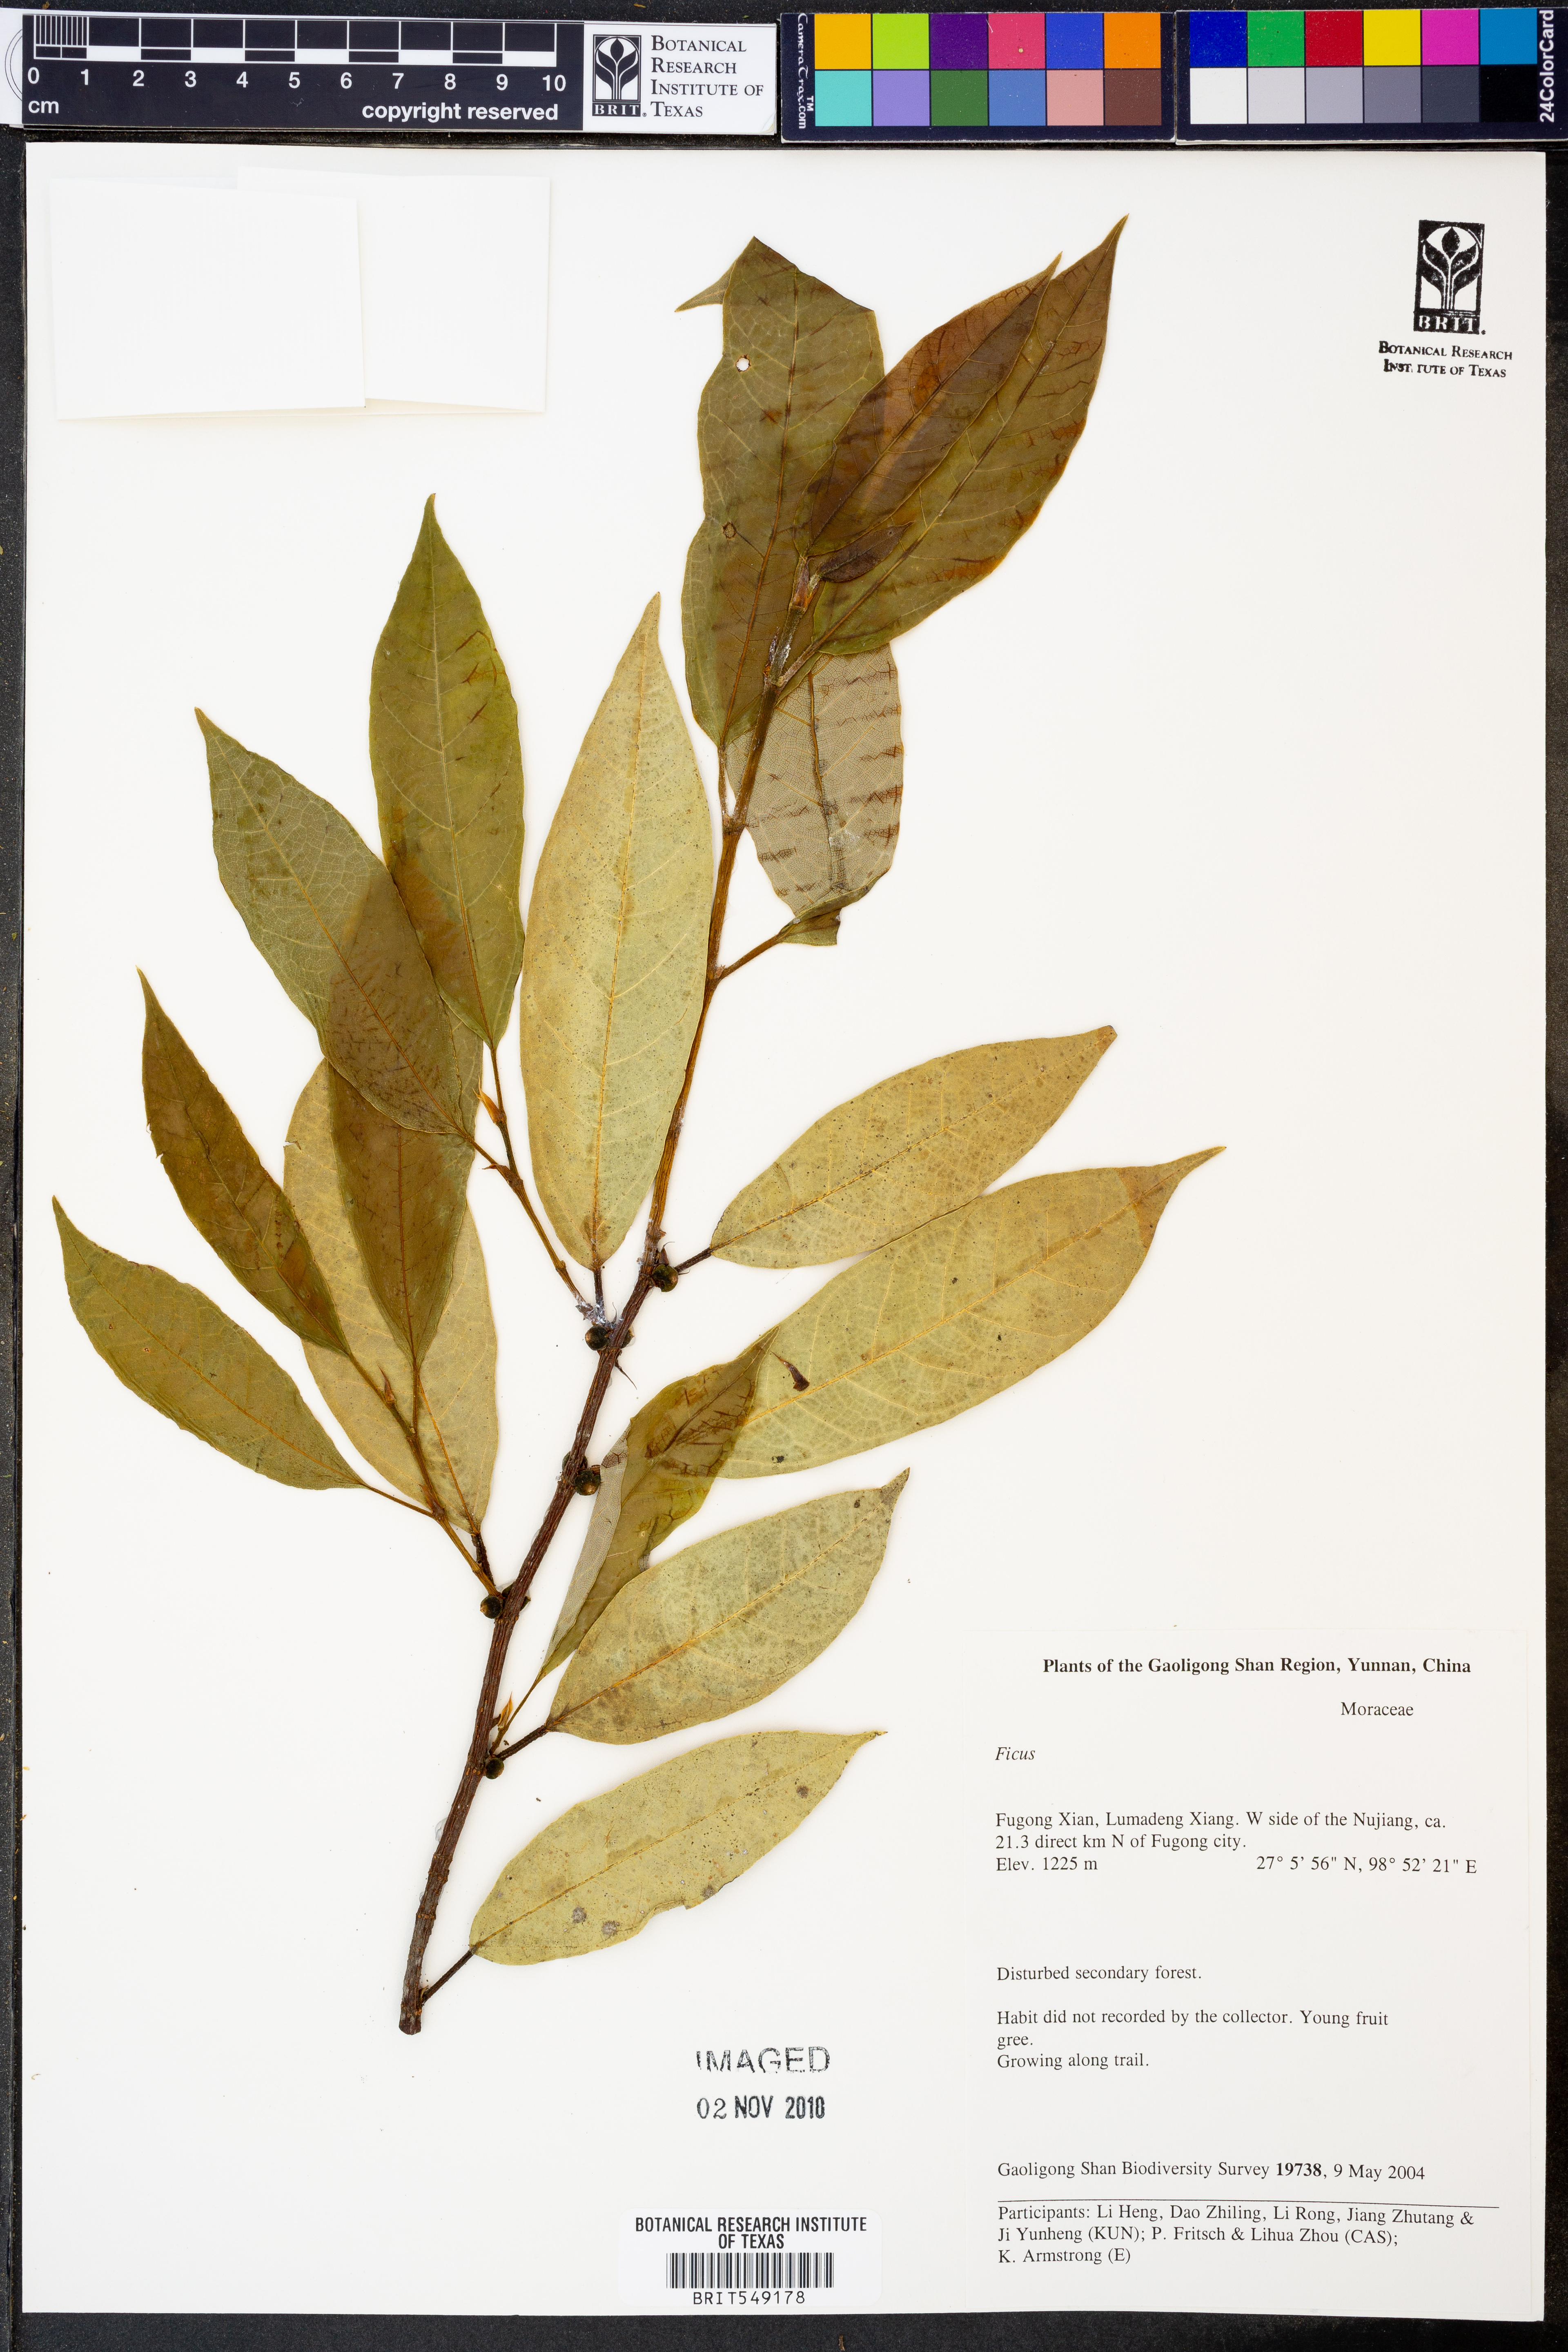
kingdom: Plantae
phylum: Tracheophyta
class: Magnoliopsida
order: Rosales
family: Moraceae
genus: Ficus
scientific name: Ficus
